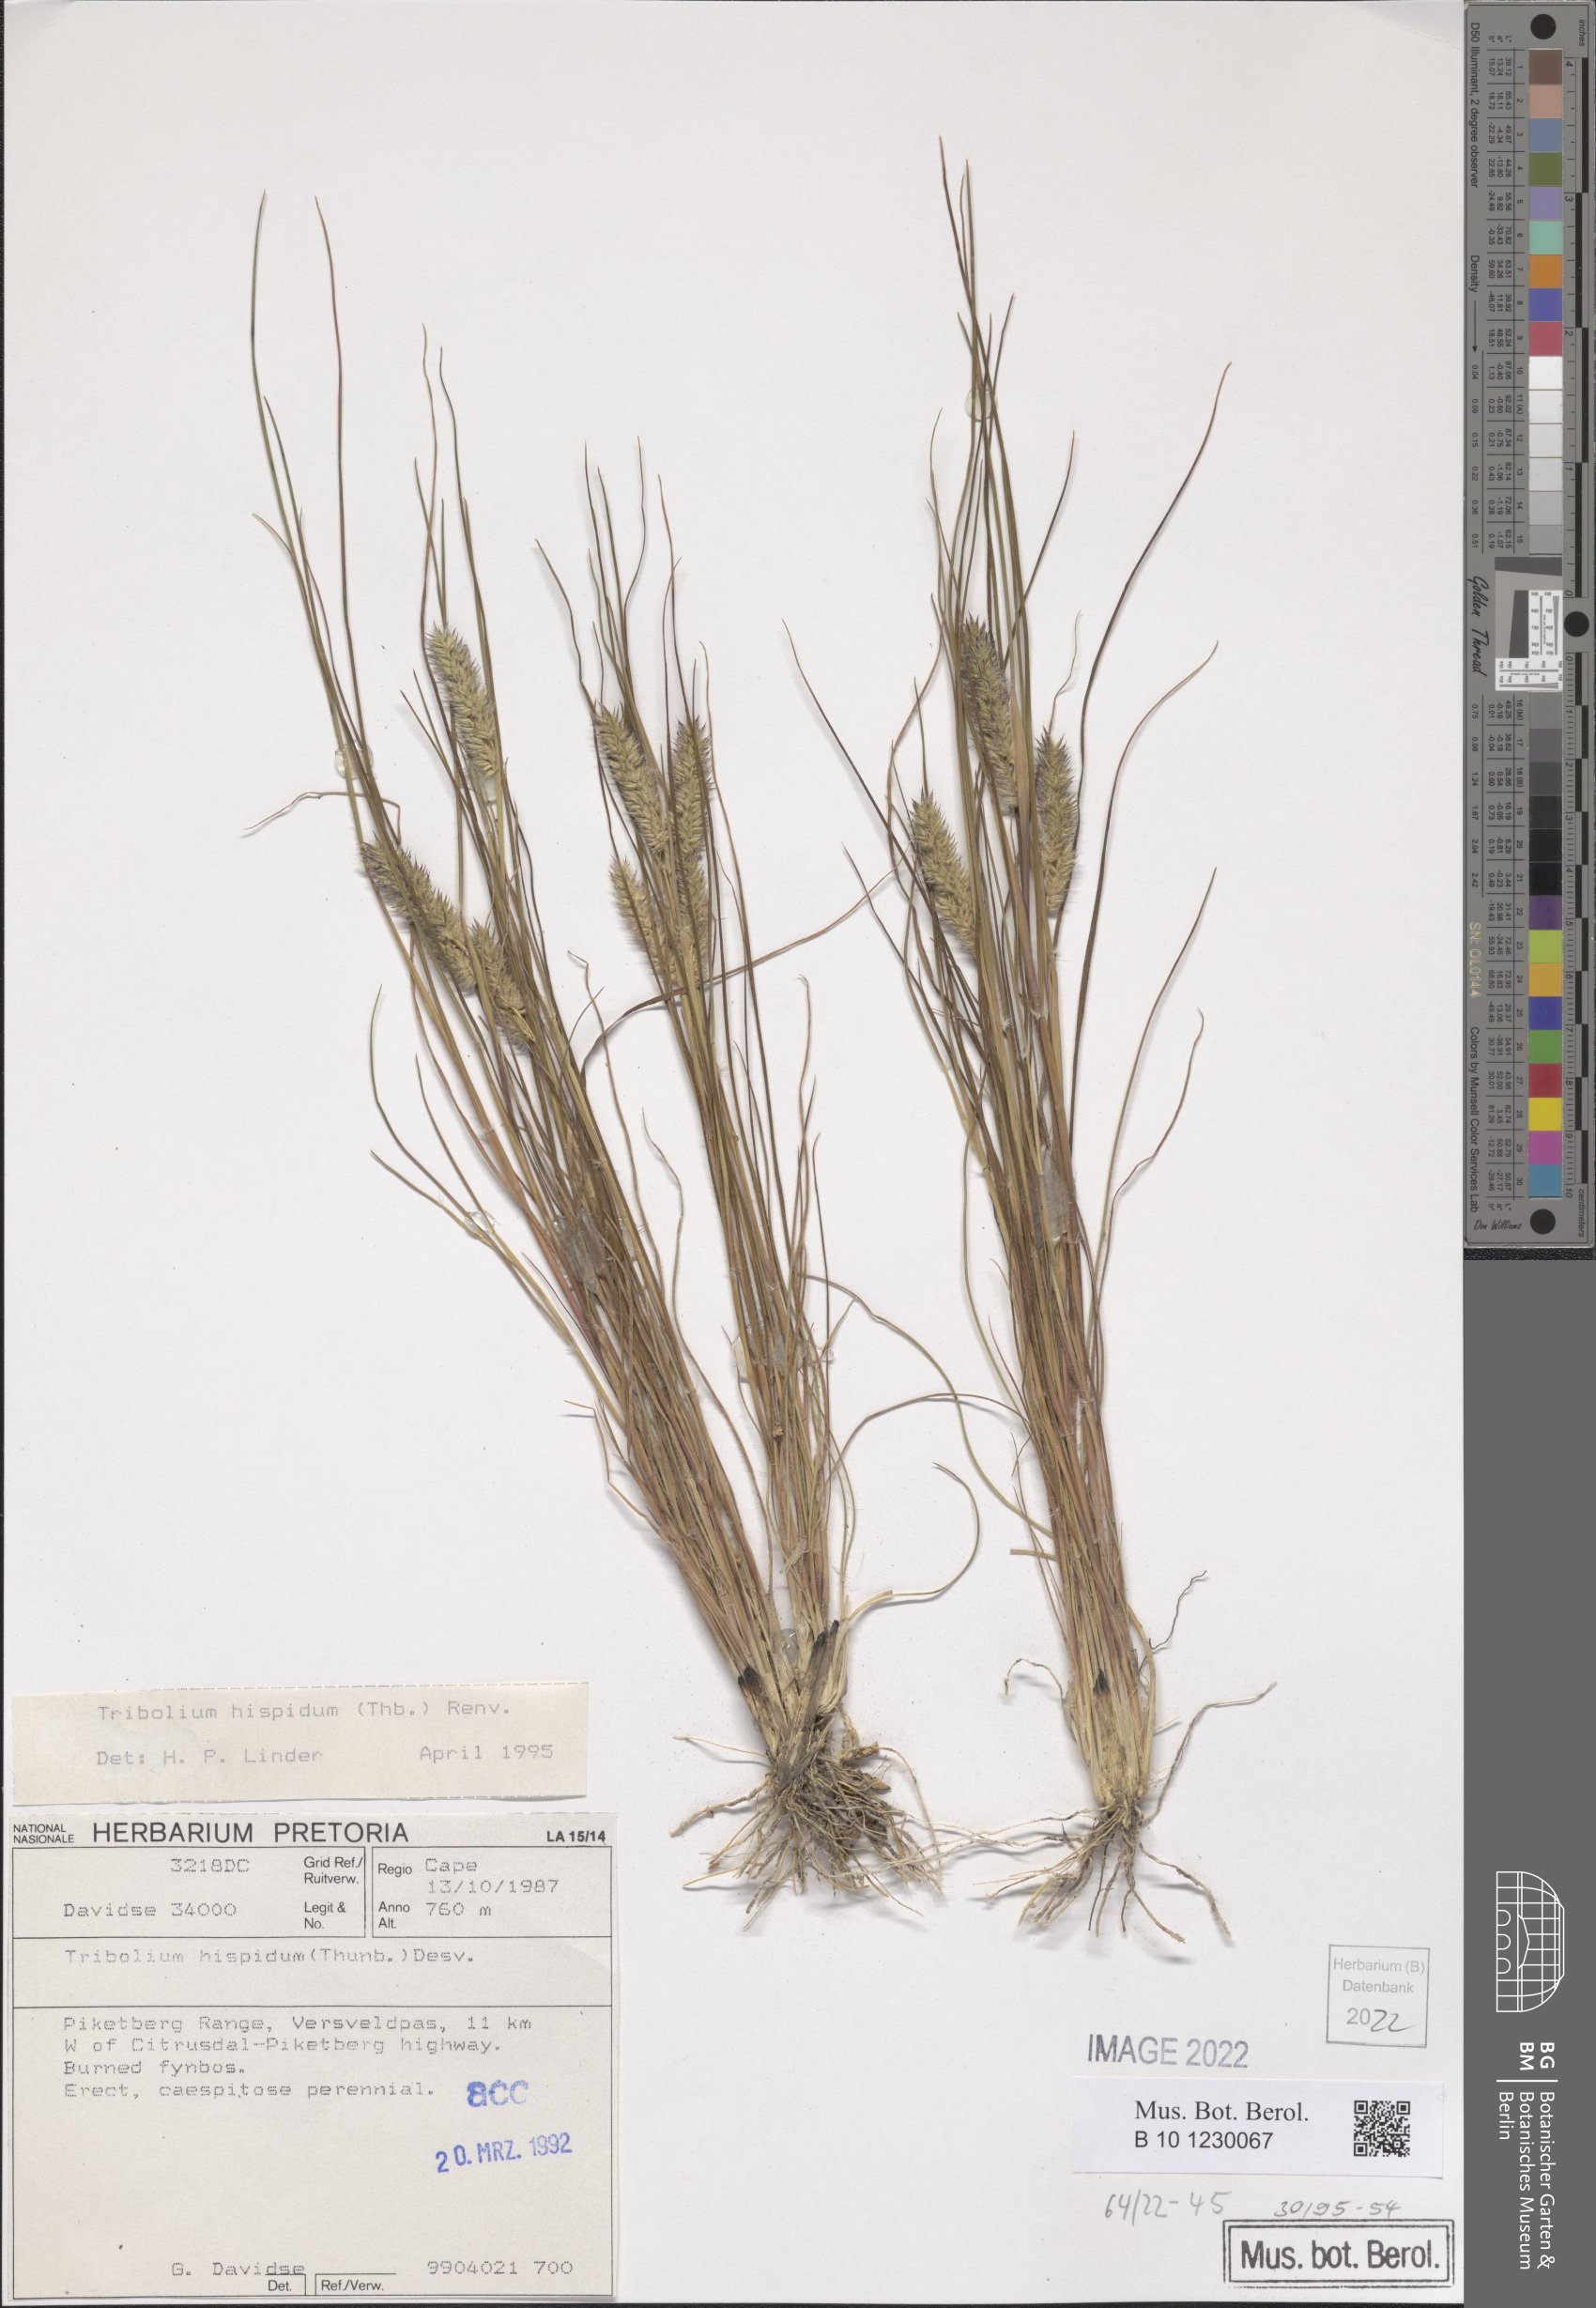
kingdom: Plantae
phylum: Tracheophyta
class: Liliopsida
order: Poales
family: Poaceae
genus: Tribolium
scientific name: Tribolium hispidum
